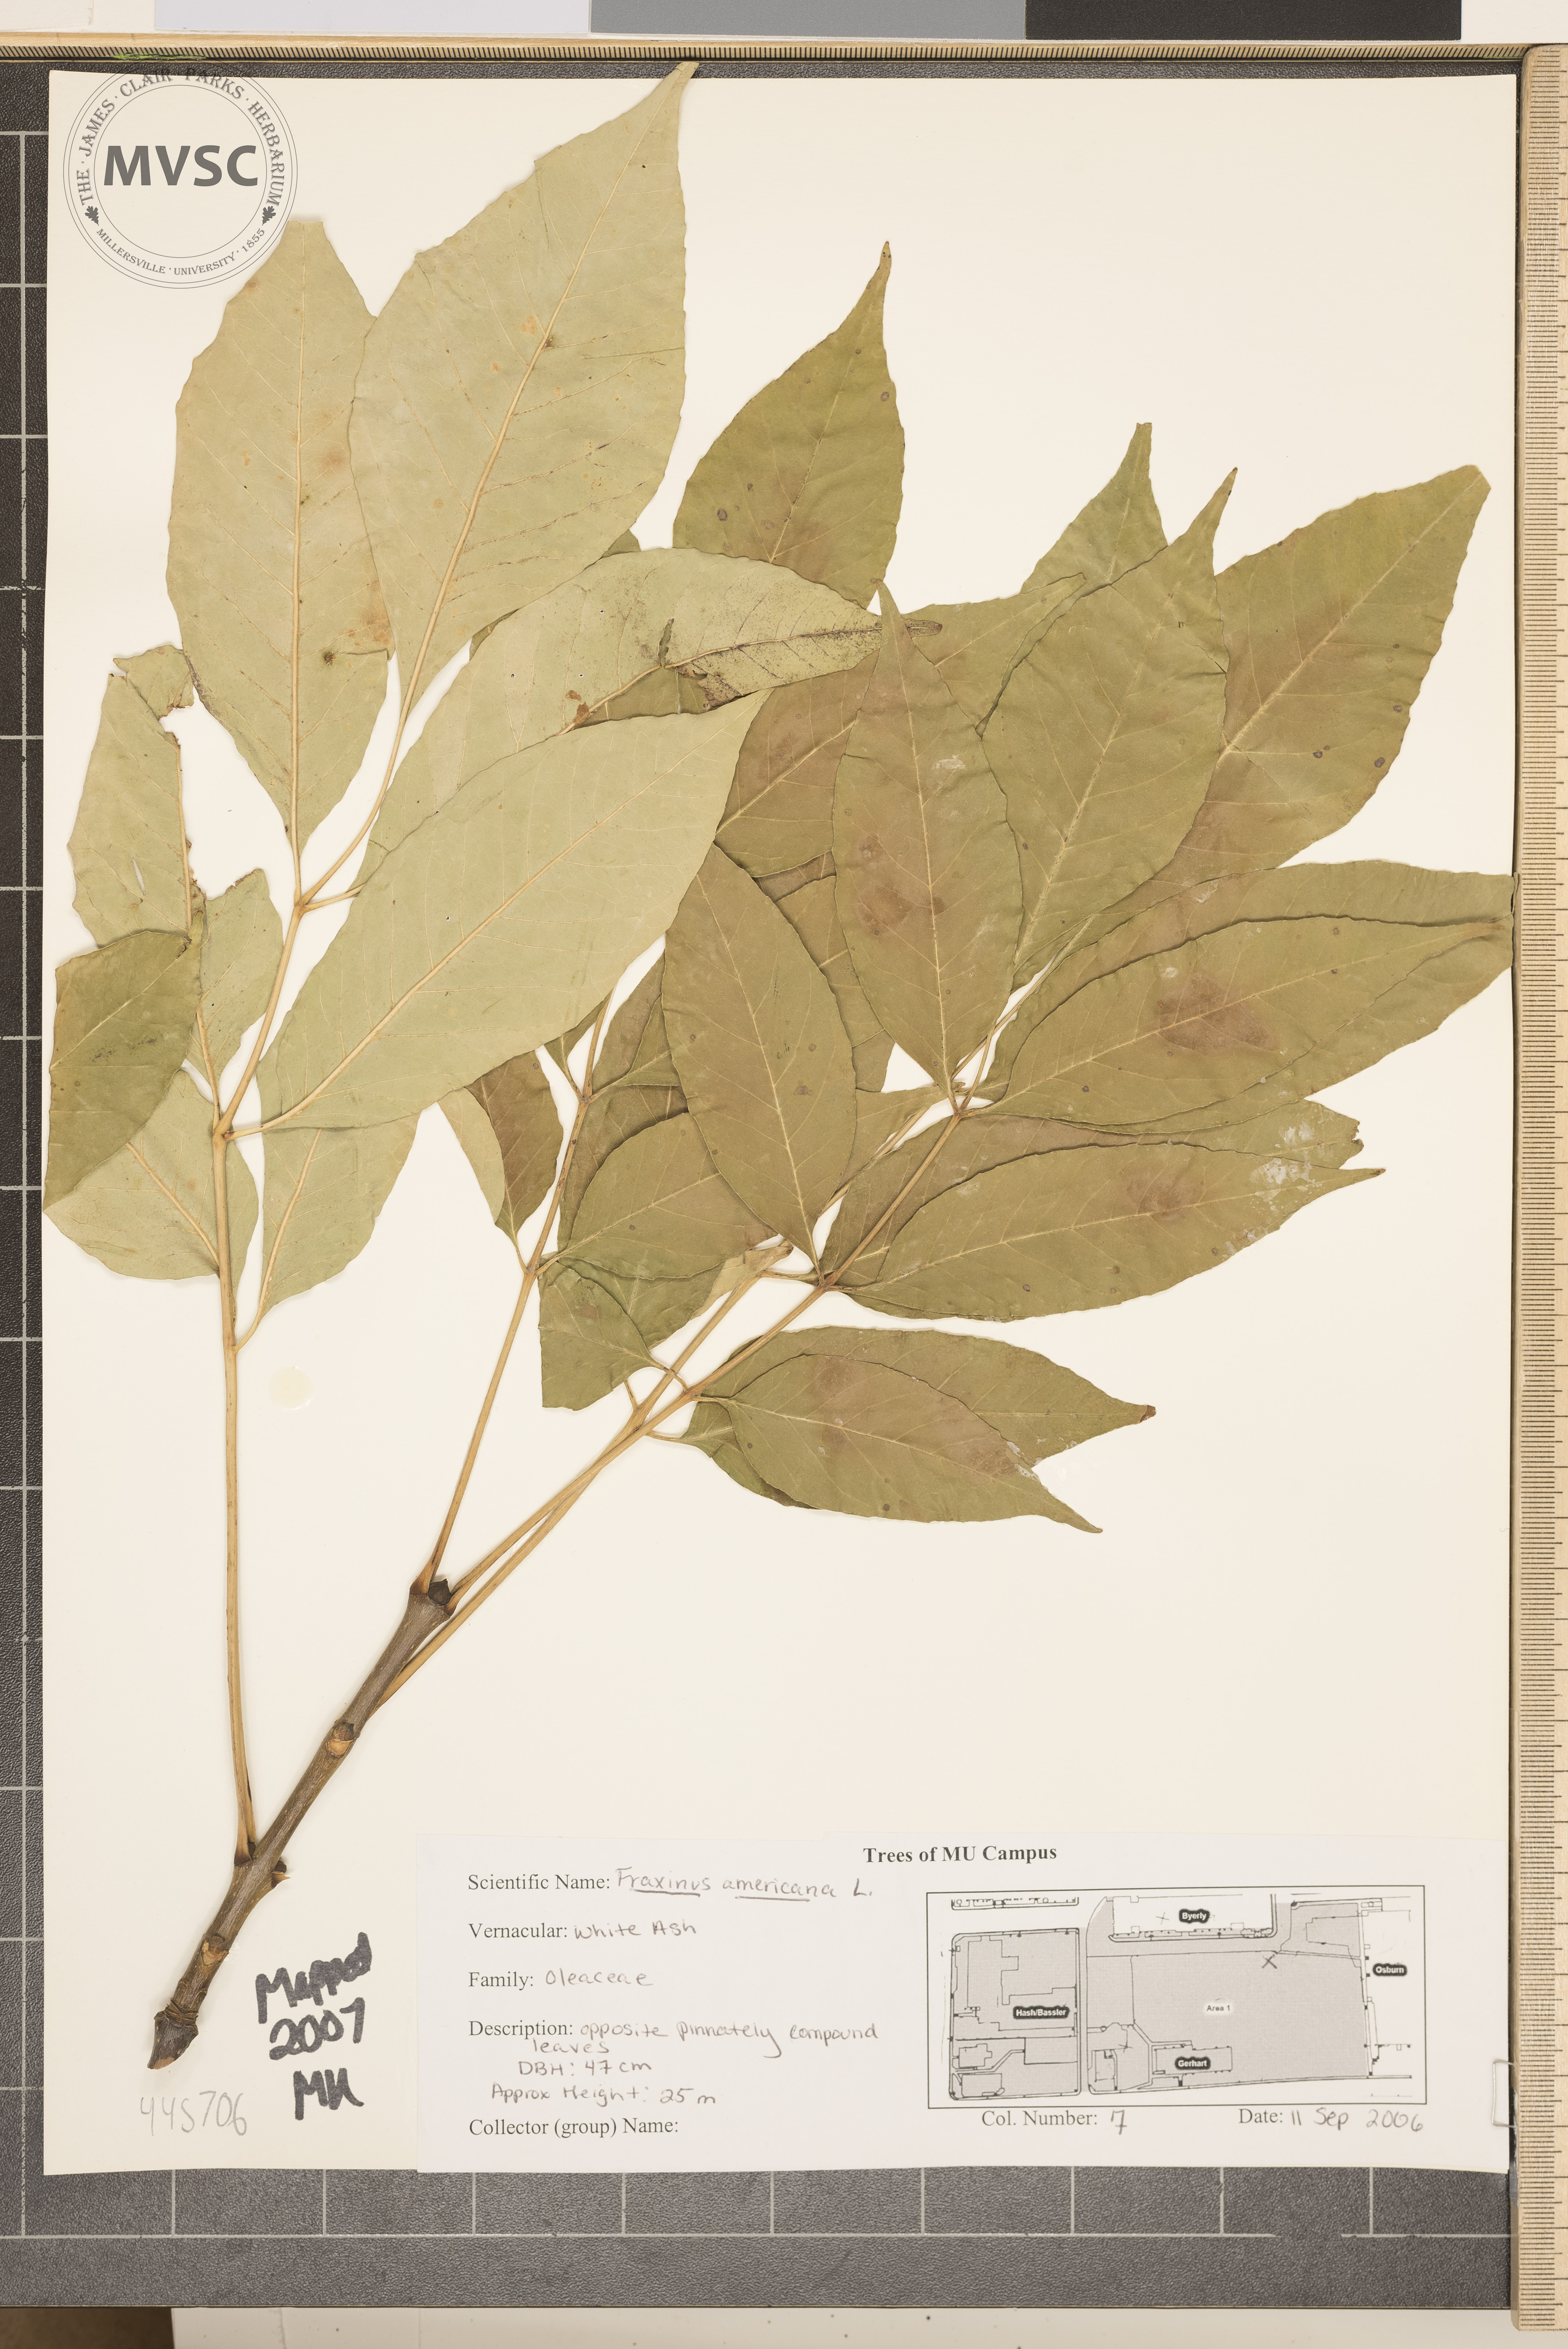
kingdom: Plantae
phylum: Tracheophyta
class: Magnoliopsida
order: Lamiales
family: Oleaceae
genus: Fraxinus
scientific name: Fraxinus americana
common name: White ash
